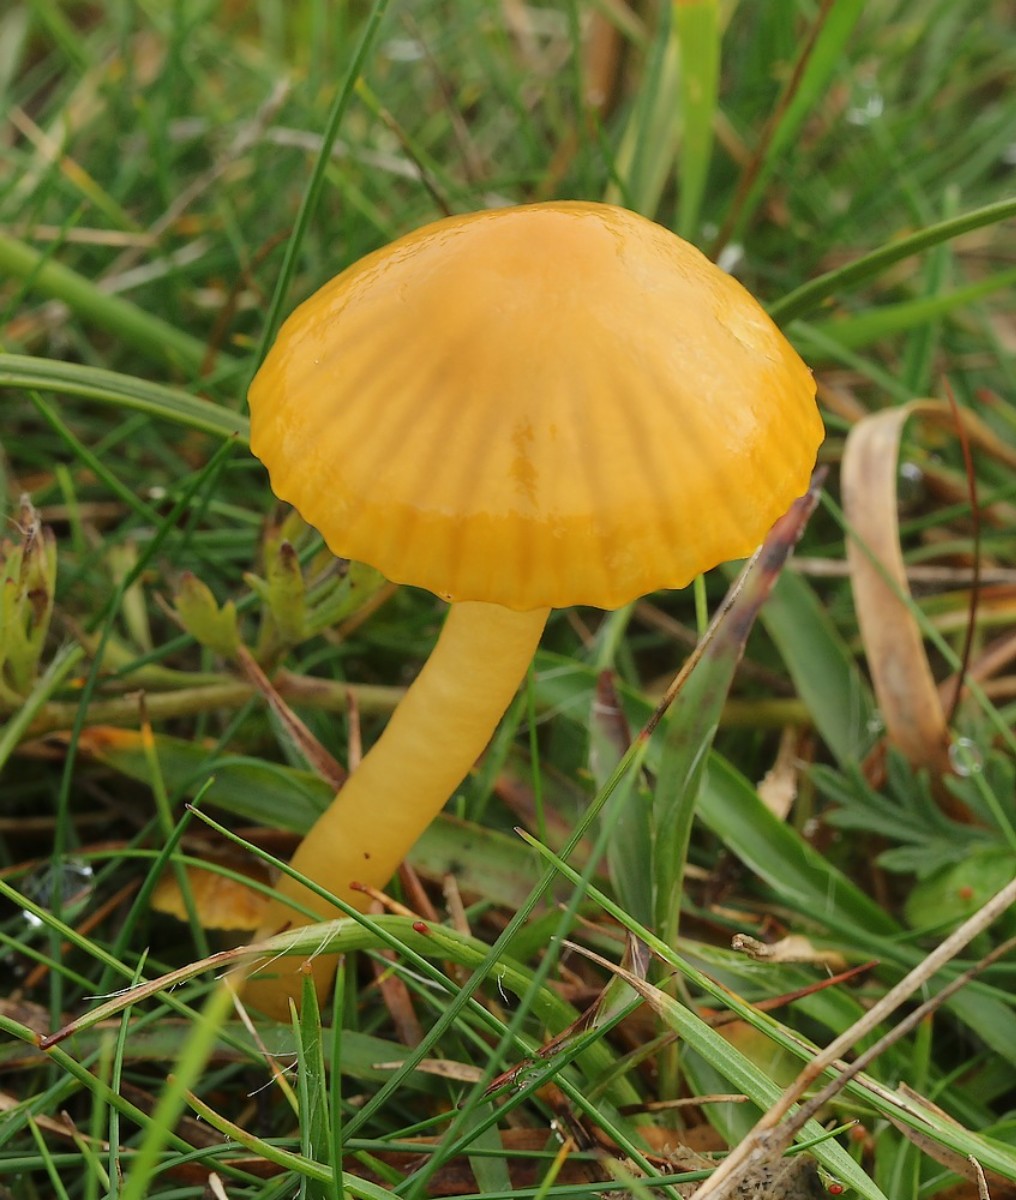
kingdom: Fungi
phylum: Basidiomycota
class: Agaricomycetes
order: Agaricales
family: Hygrophoraceae
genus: Gliophorus
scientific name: Gliophorus psittacinus
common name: papegøje-vokshat
